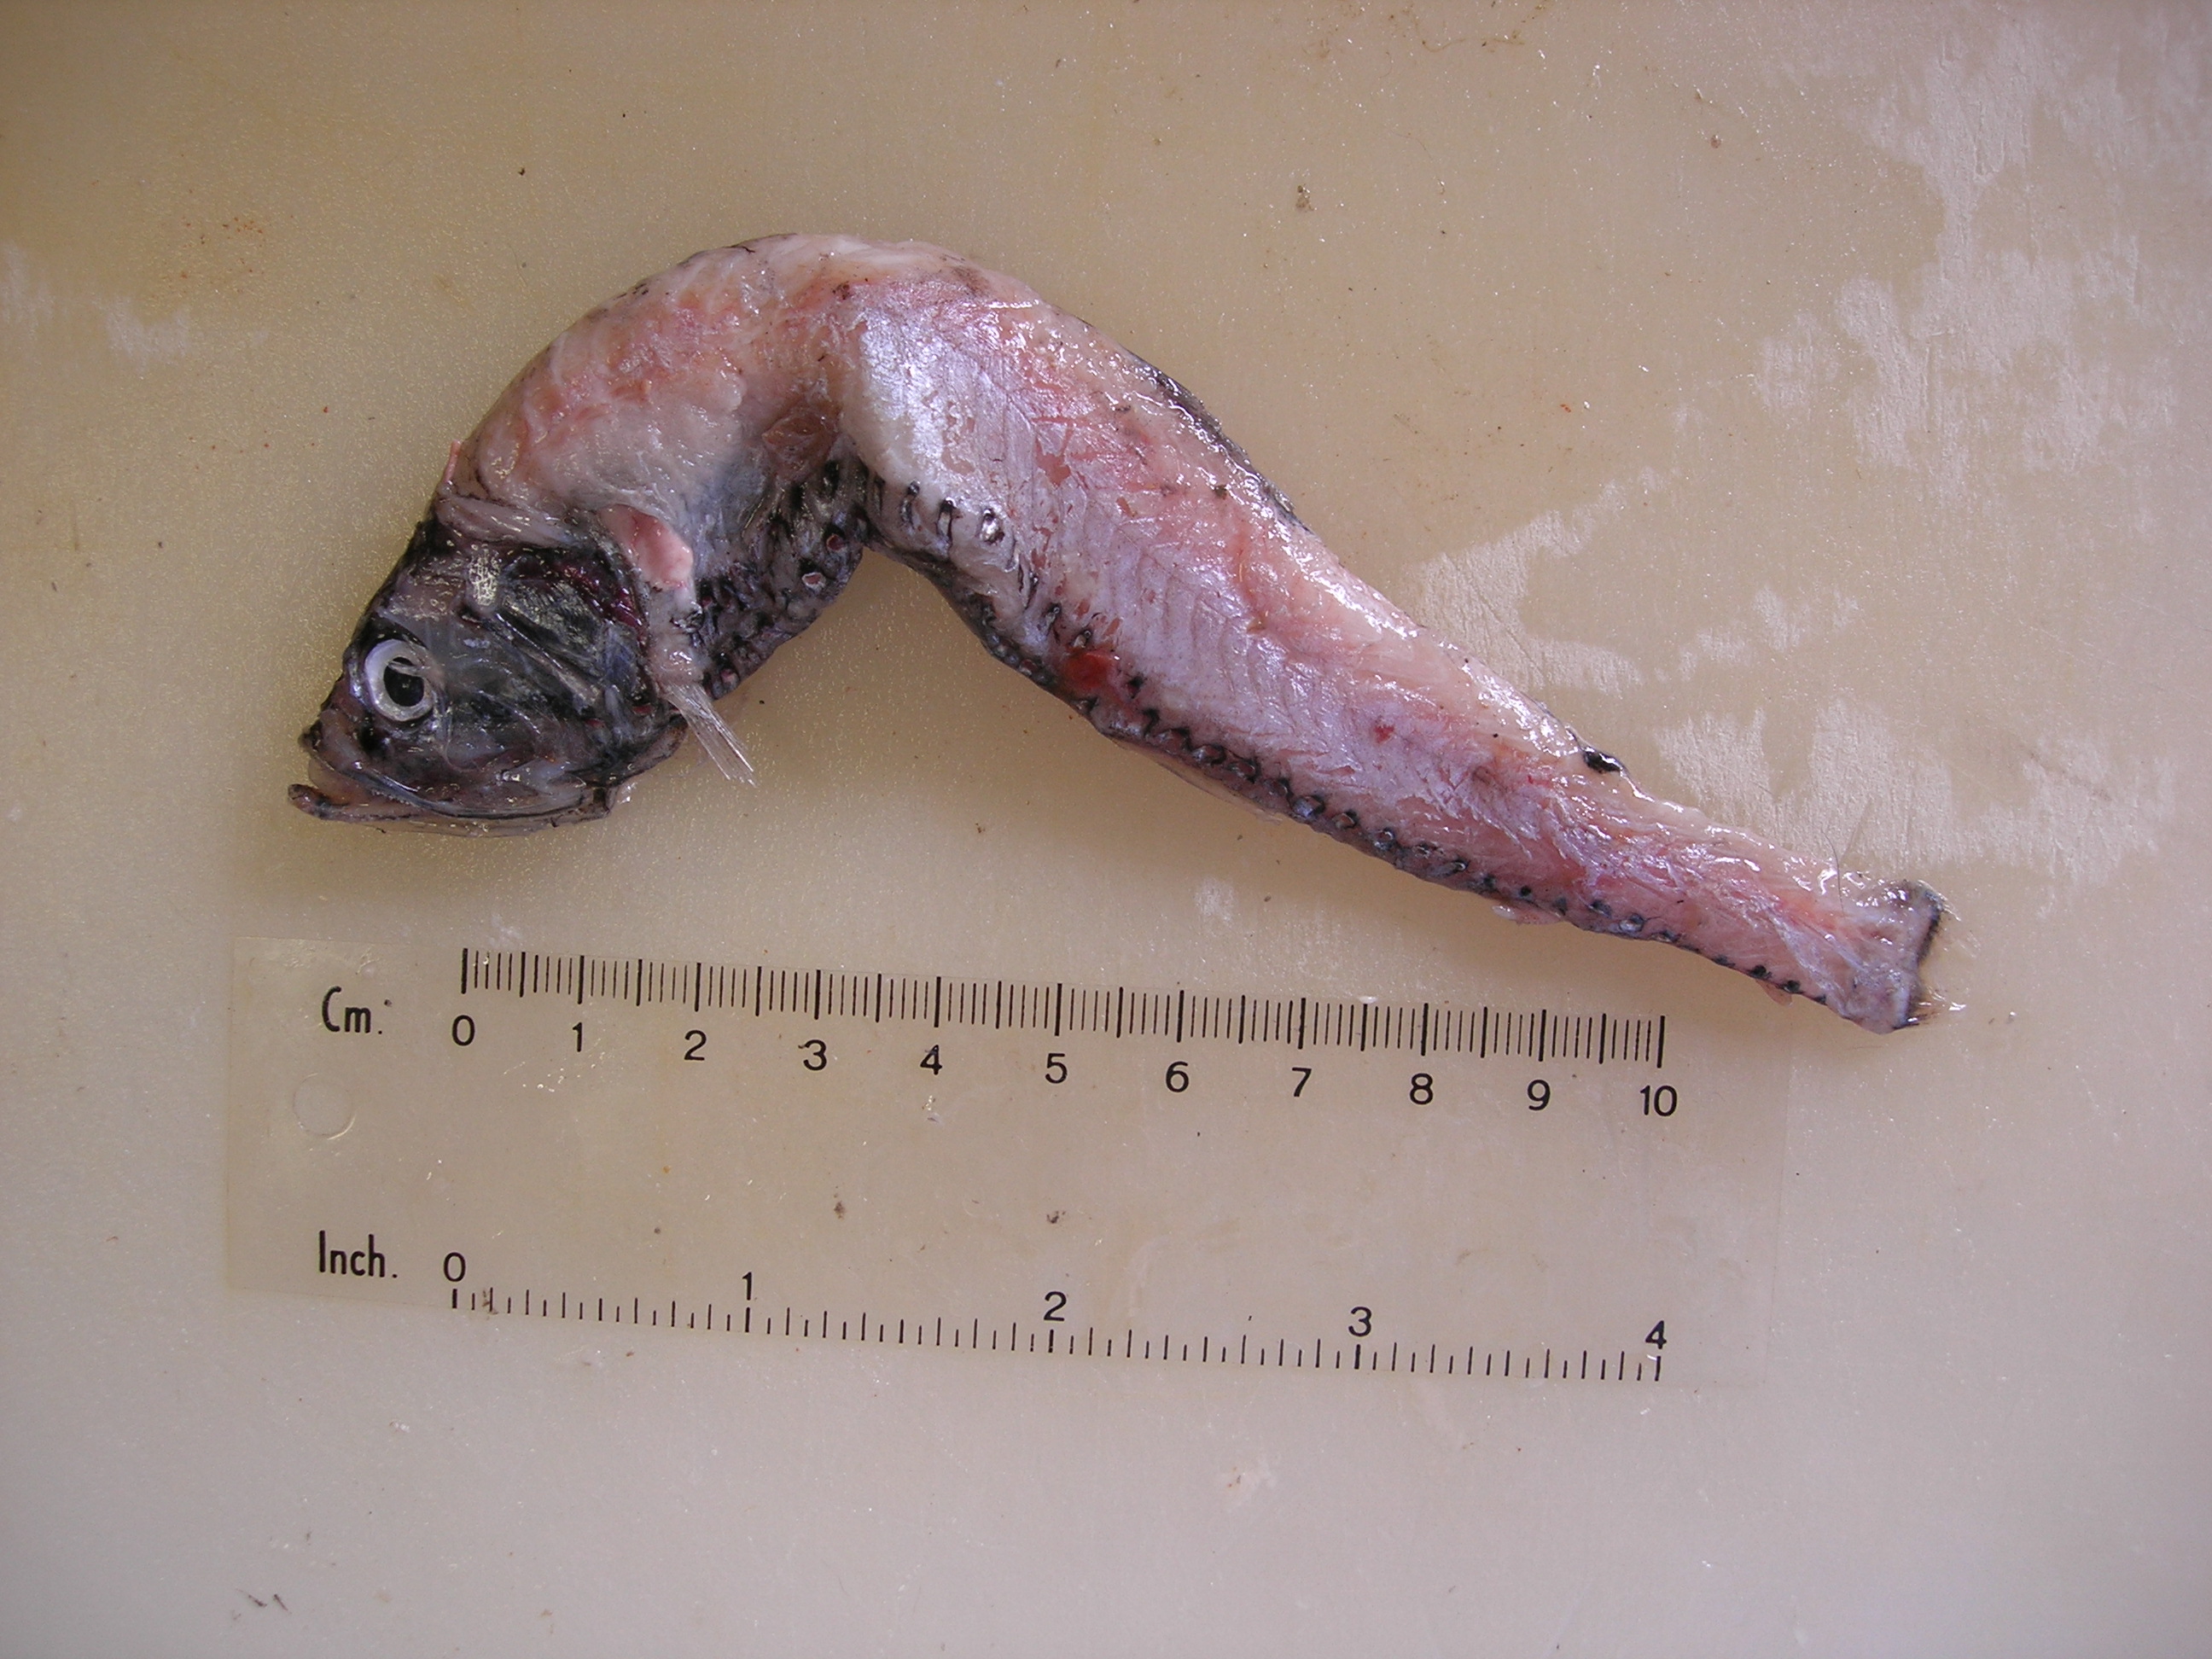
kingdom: Animalia
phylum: Chordata
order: Stomiiformes
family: Phosichthyidae
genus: Polymetme
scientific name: Polymetme corythaeola
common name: Rendezvous fish
